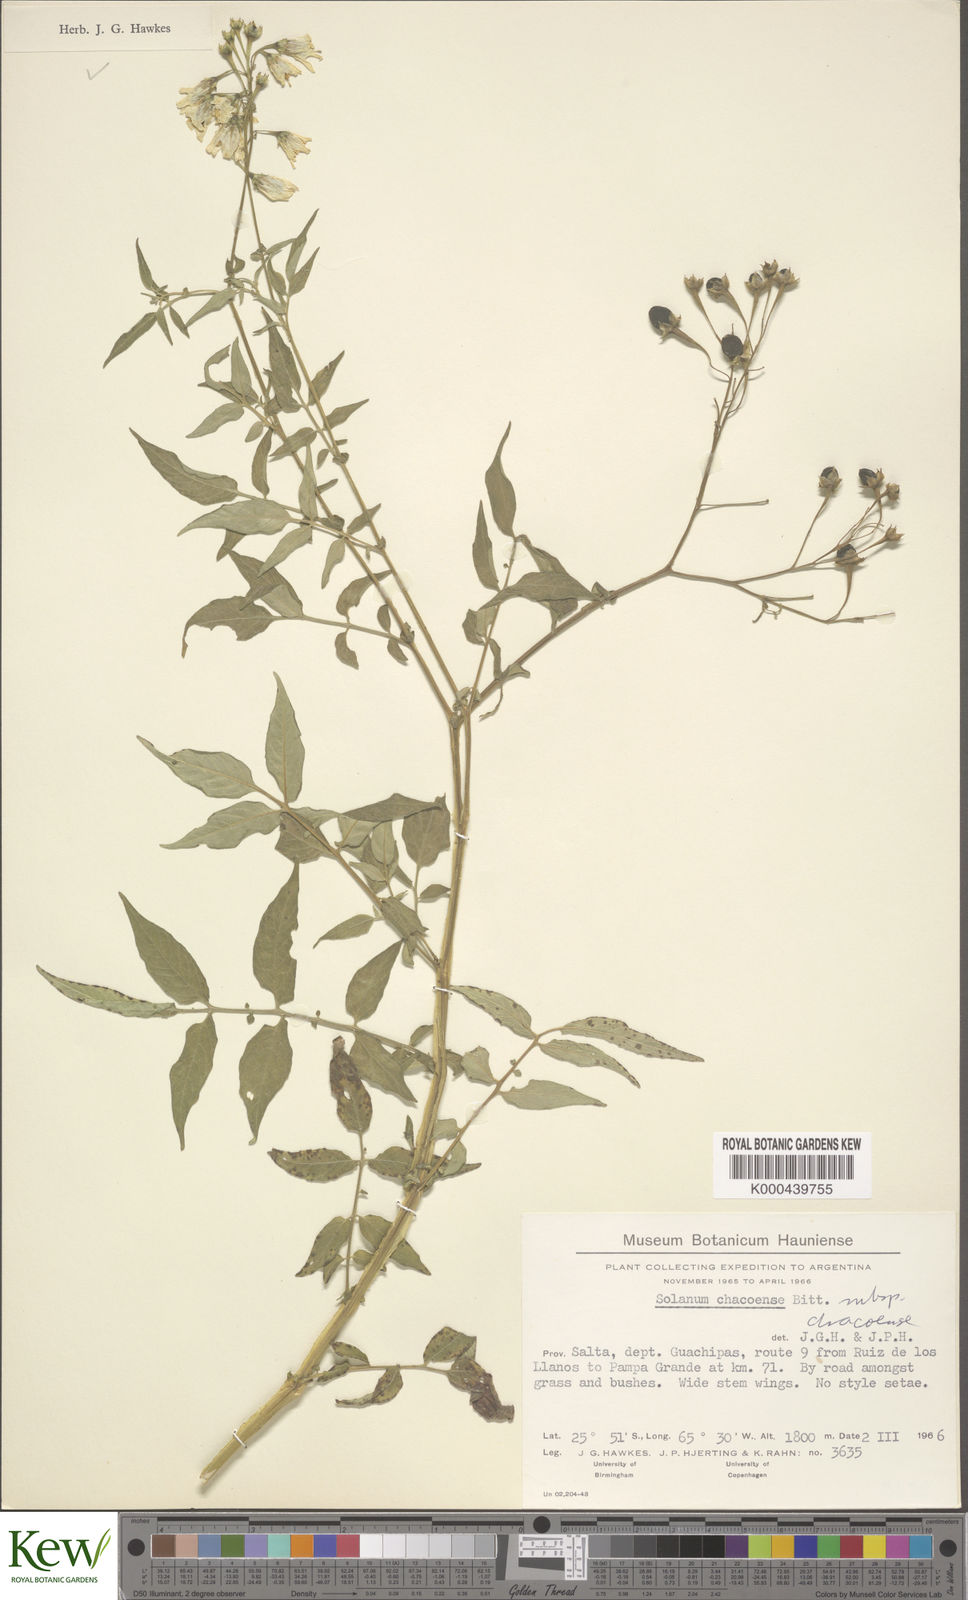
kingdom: Plantae
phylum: Tracheophyta
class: Magnoliopsida
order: Solanales
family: Solanaceae
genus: Solanum
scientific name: Solanum chacoense
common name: Chaco potato
